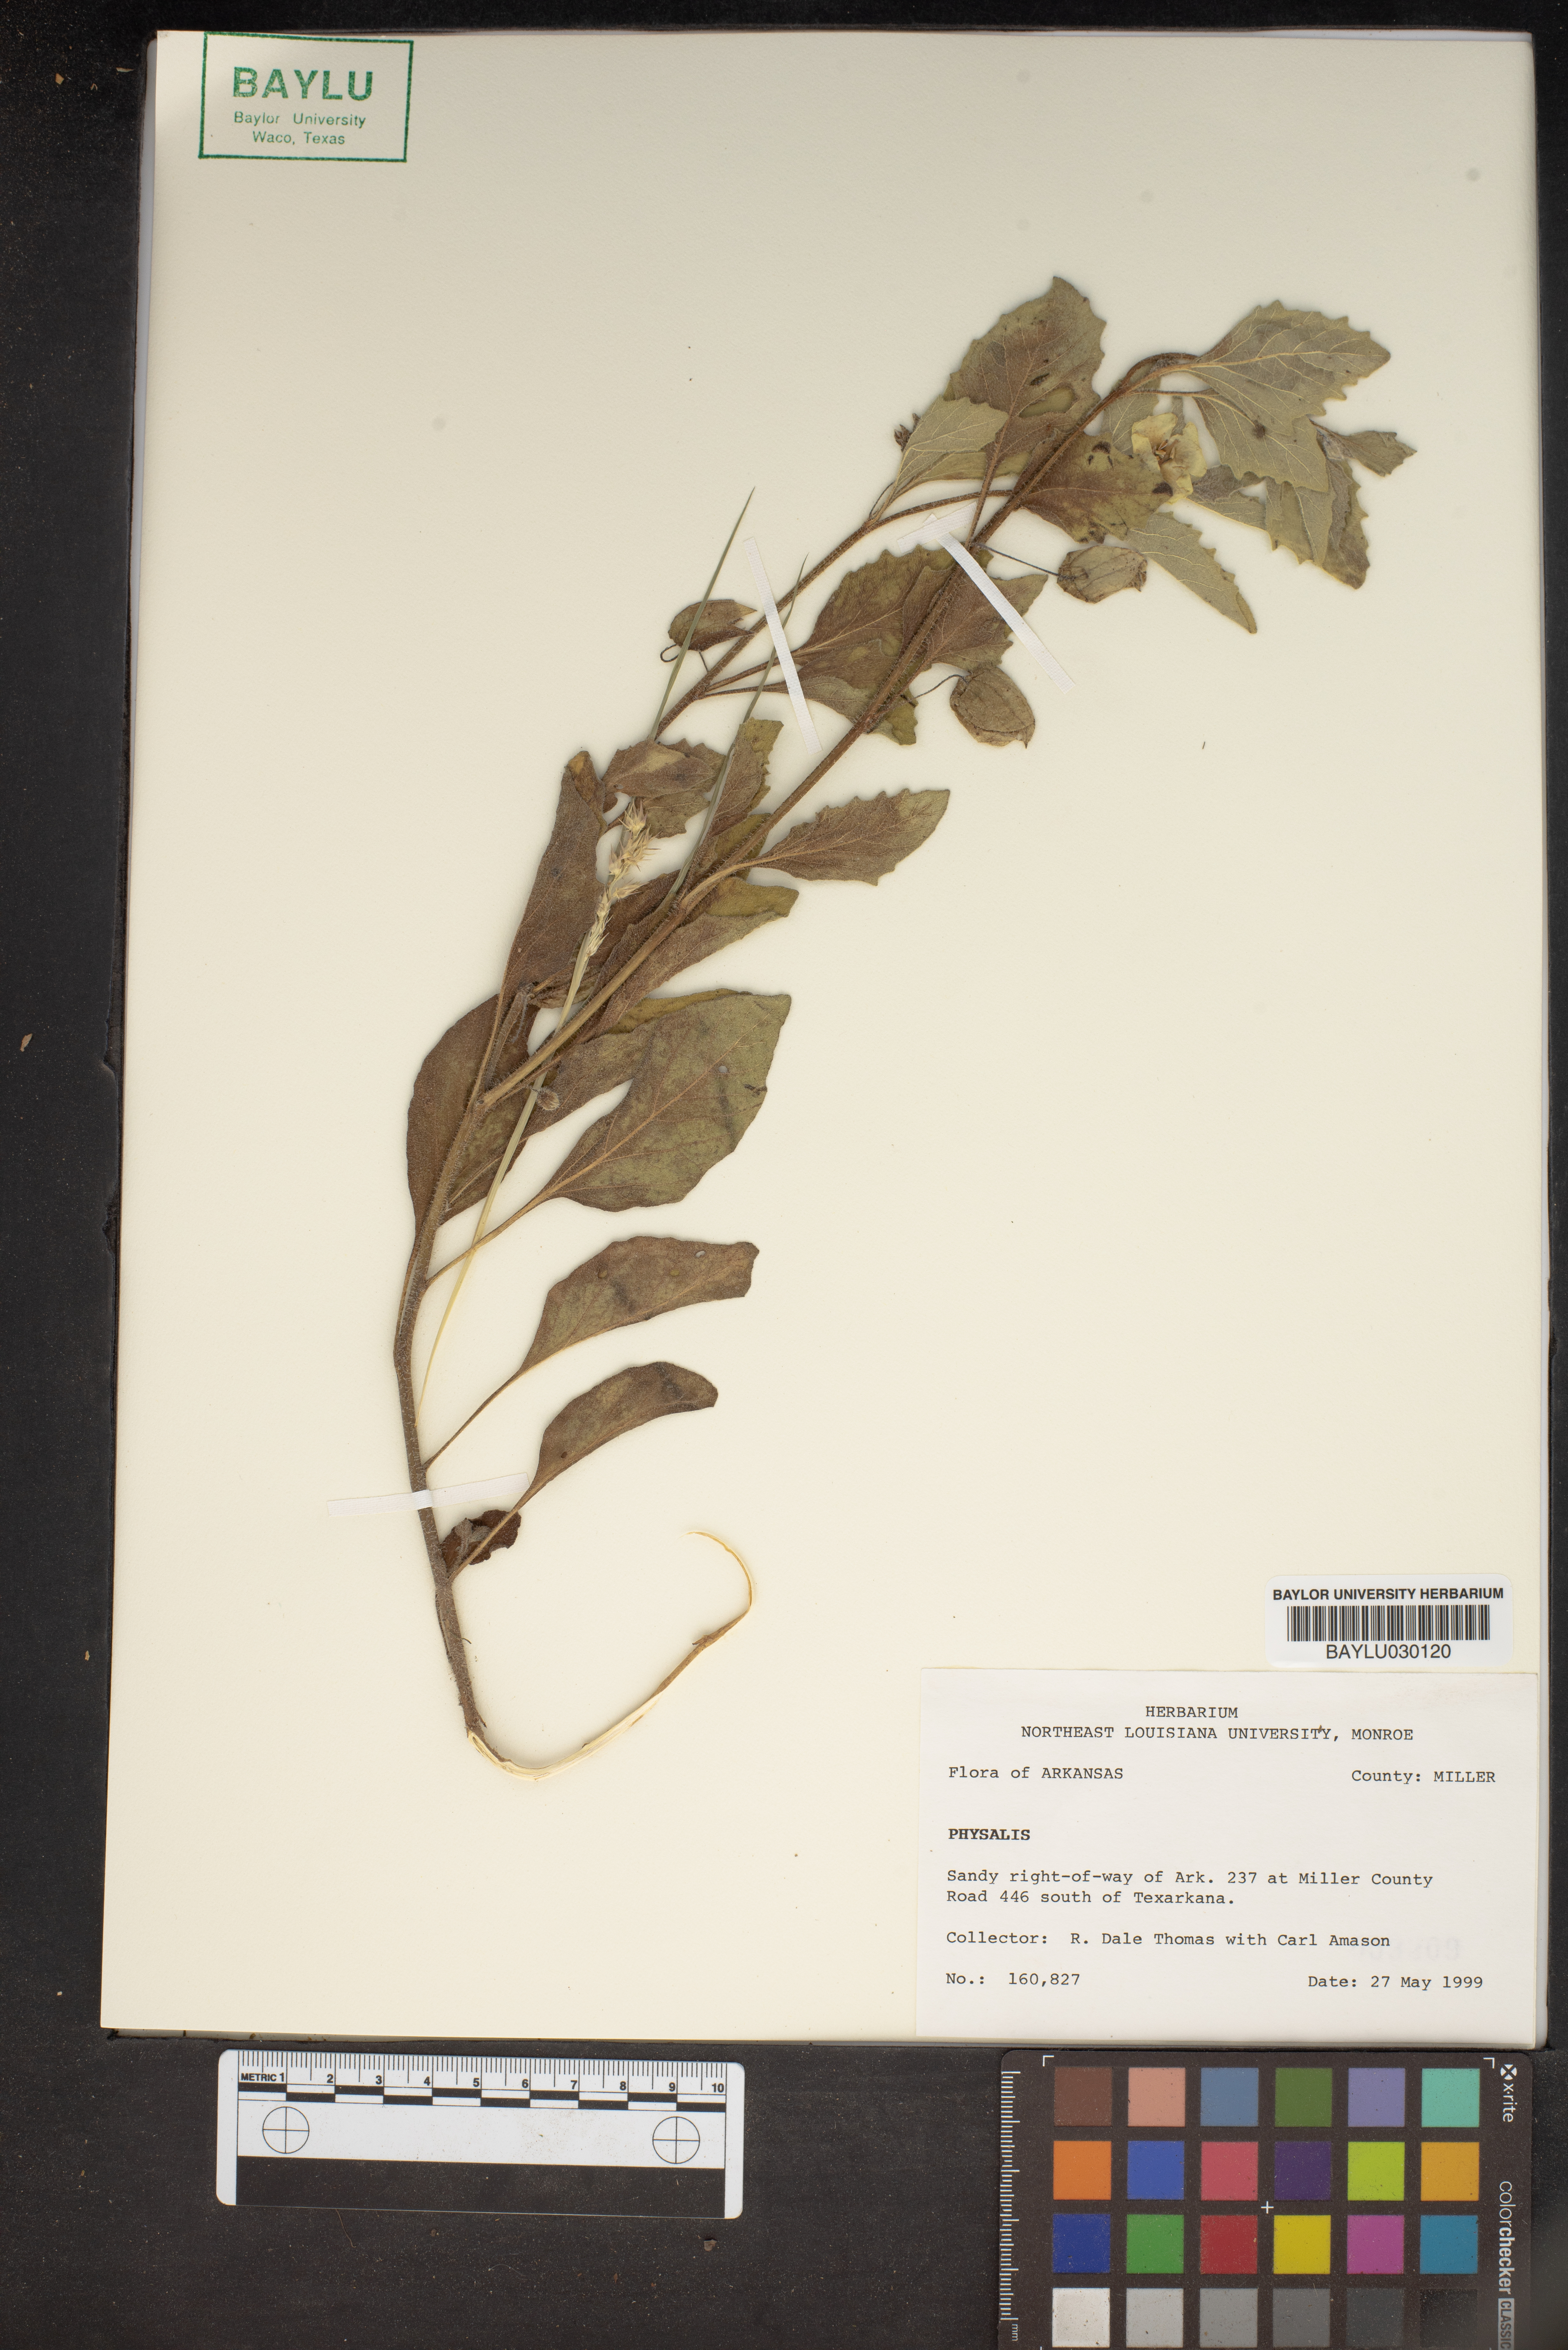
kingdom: Plantae
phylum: Tracheophyta
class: Magnoliopsida
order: Solanales
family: Solanaceae
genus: Physalis
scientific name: Physalis
